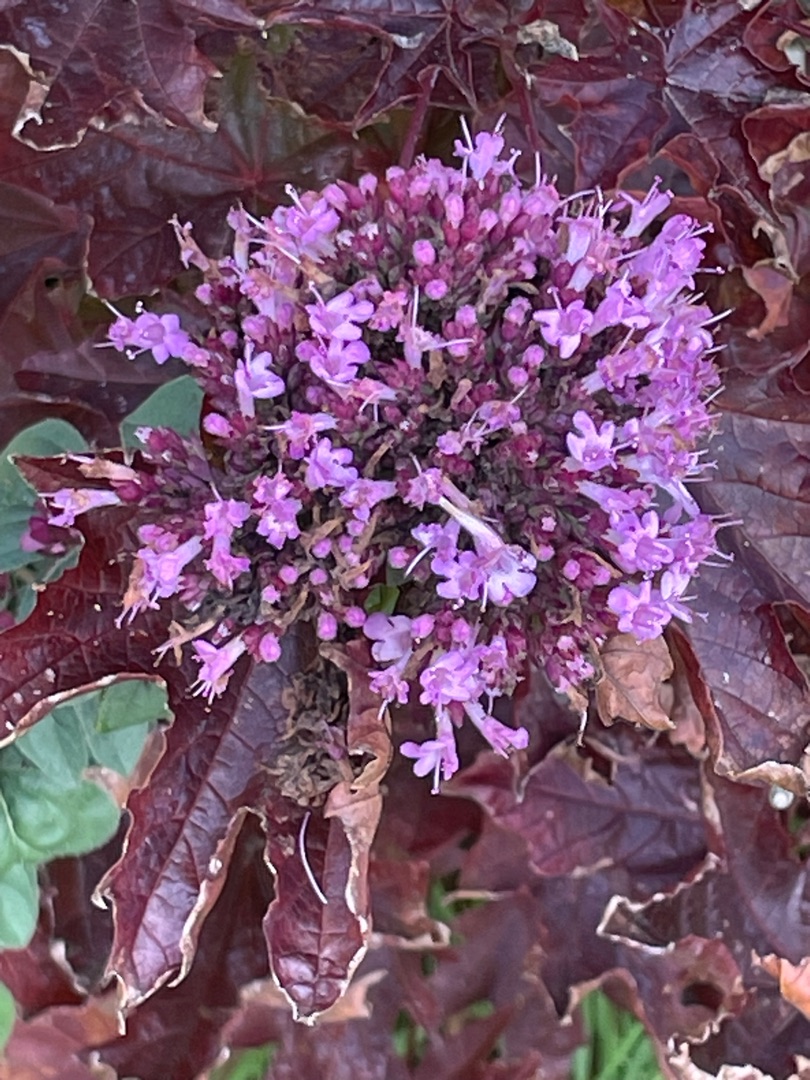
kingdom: Plantae
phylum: Tracheophyta
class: Magnoliopsida
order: Lamiales
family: Lamiaceae
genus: Origanum
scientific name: Origanum vulgare
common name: Merian
